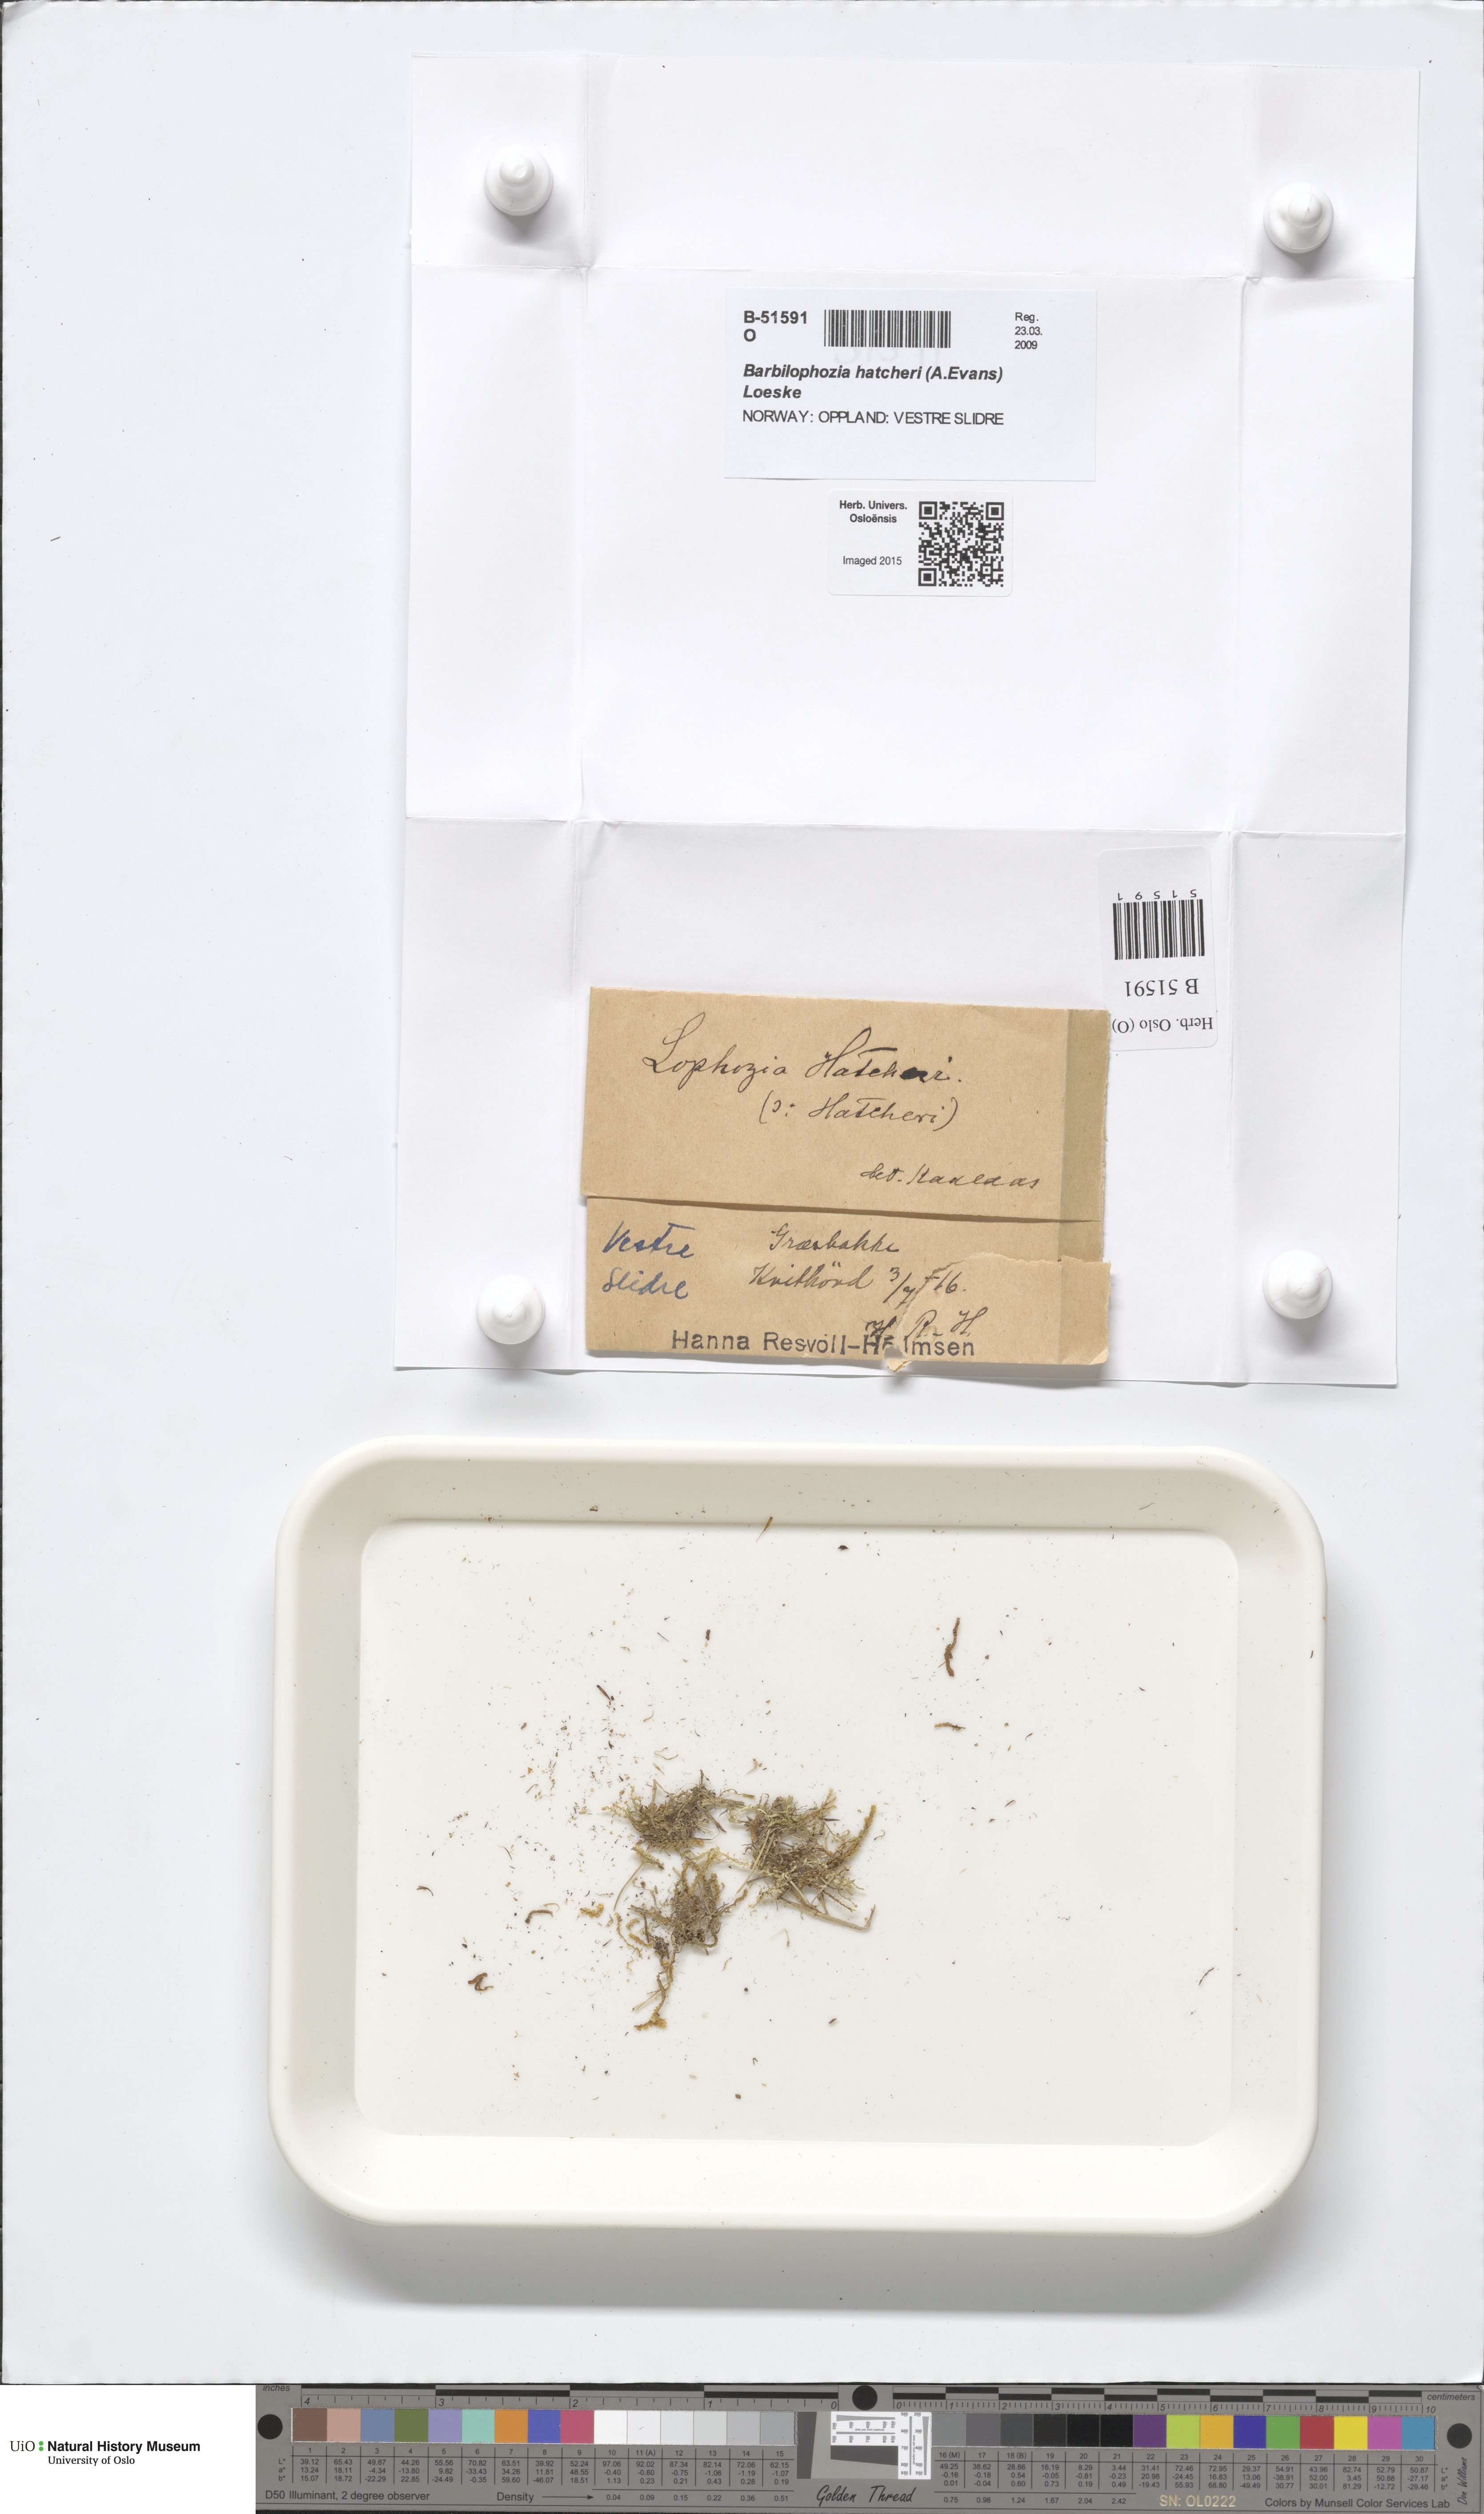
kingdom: Plantae
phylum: Marchantiophyta
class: Jungermanniopsida
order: Jungermanniales
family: Anastrophyllaceae
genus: Barbilophozia
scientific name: Barbilophozia hatcheri
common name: Hatcher s pawwort
